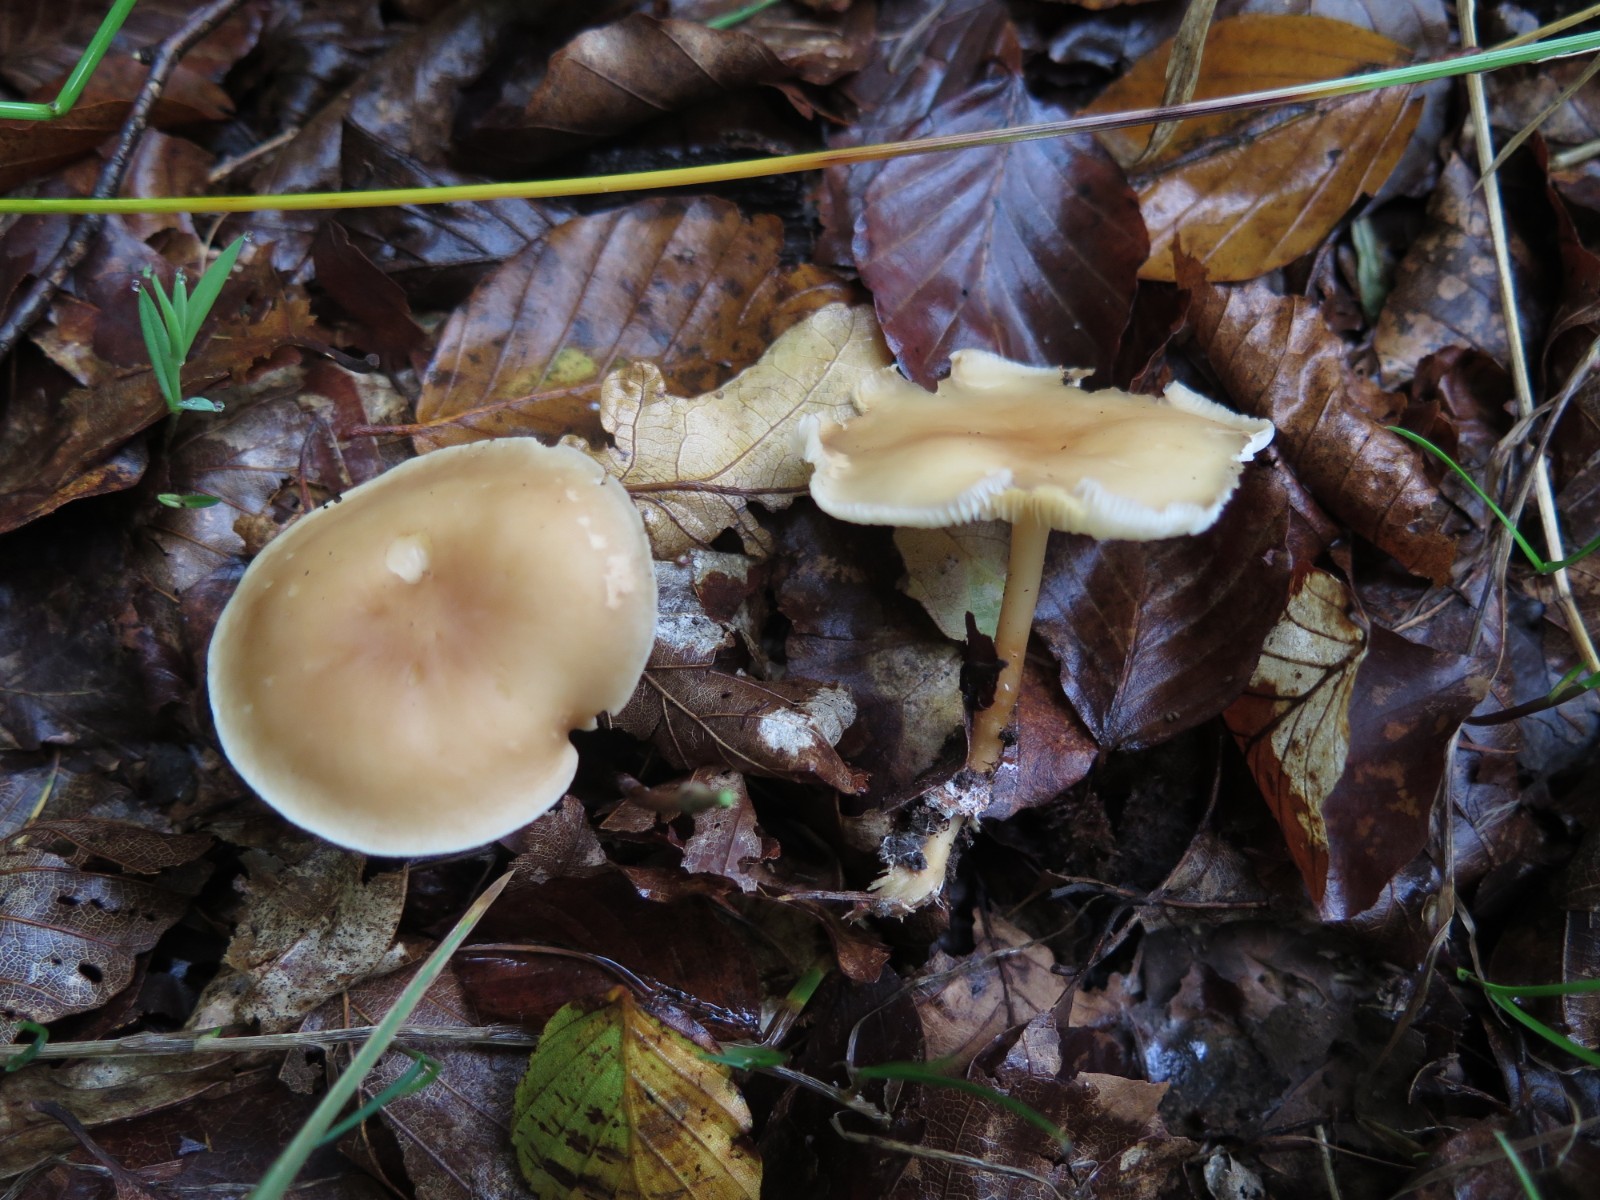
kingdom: Fungi
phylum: Basidiomycota
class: Agaricomycetes
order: Agaricales
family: Omphalotaceae
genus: Gymnopus
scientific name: Gymnopus
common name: fladhat
